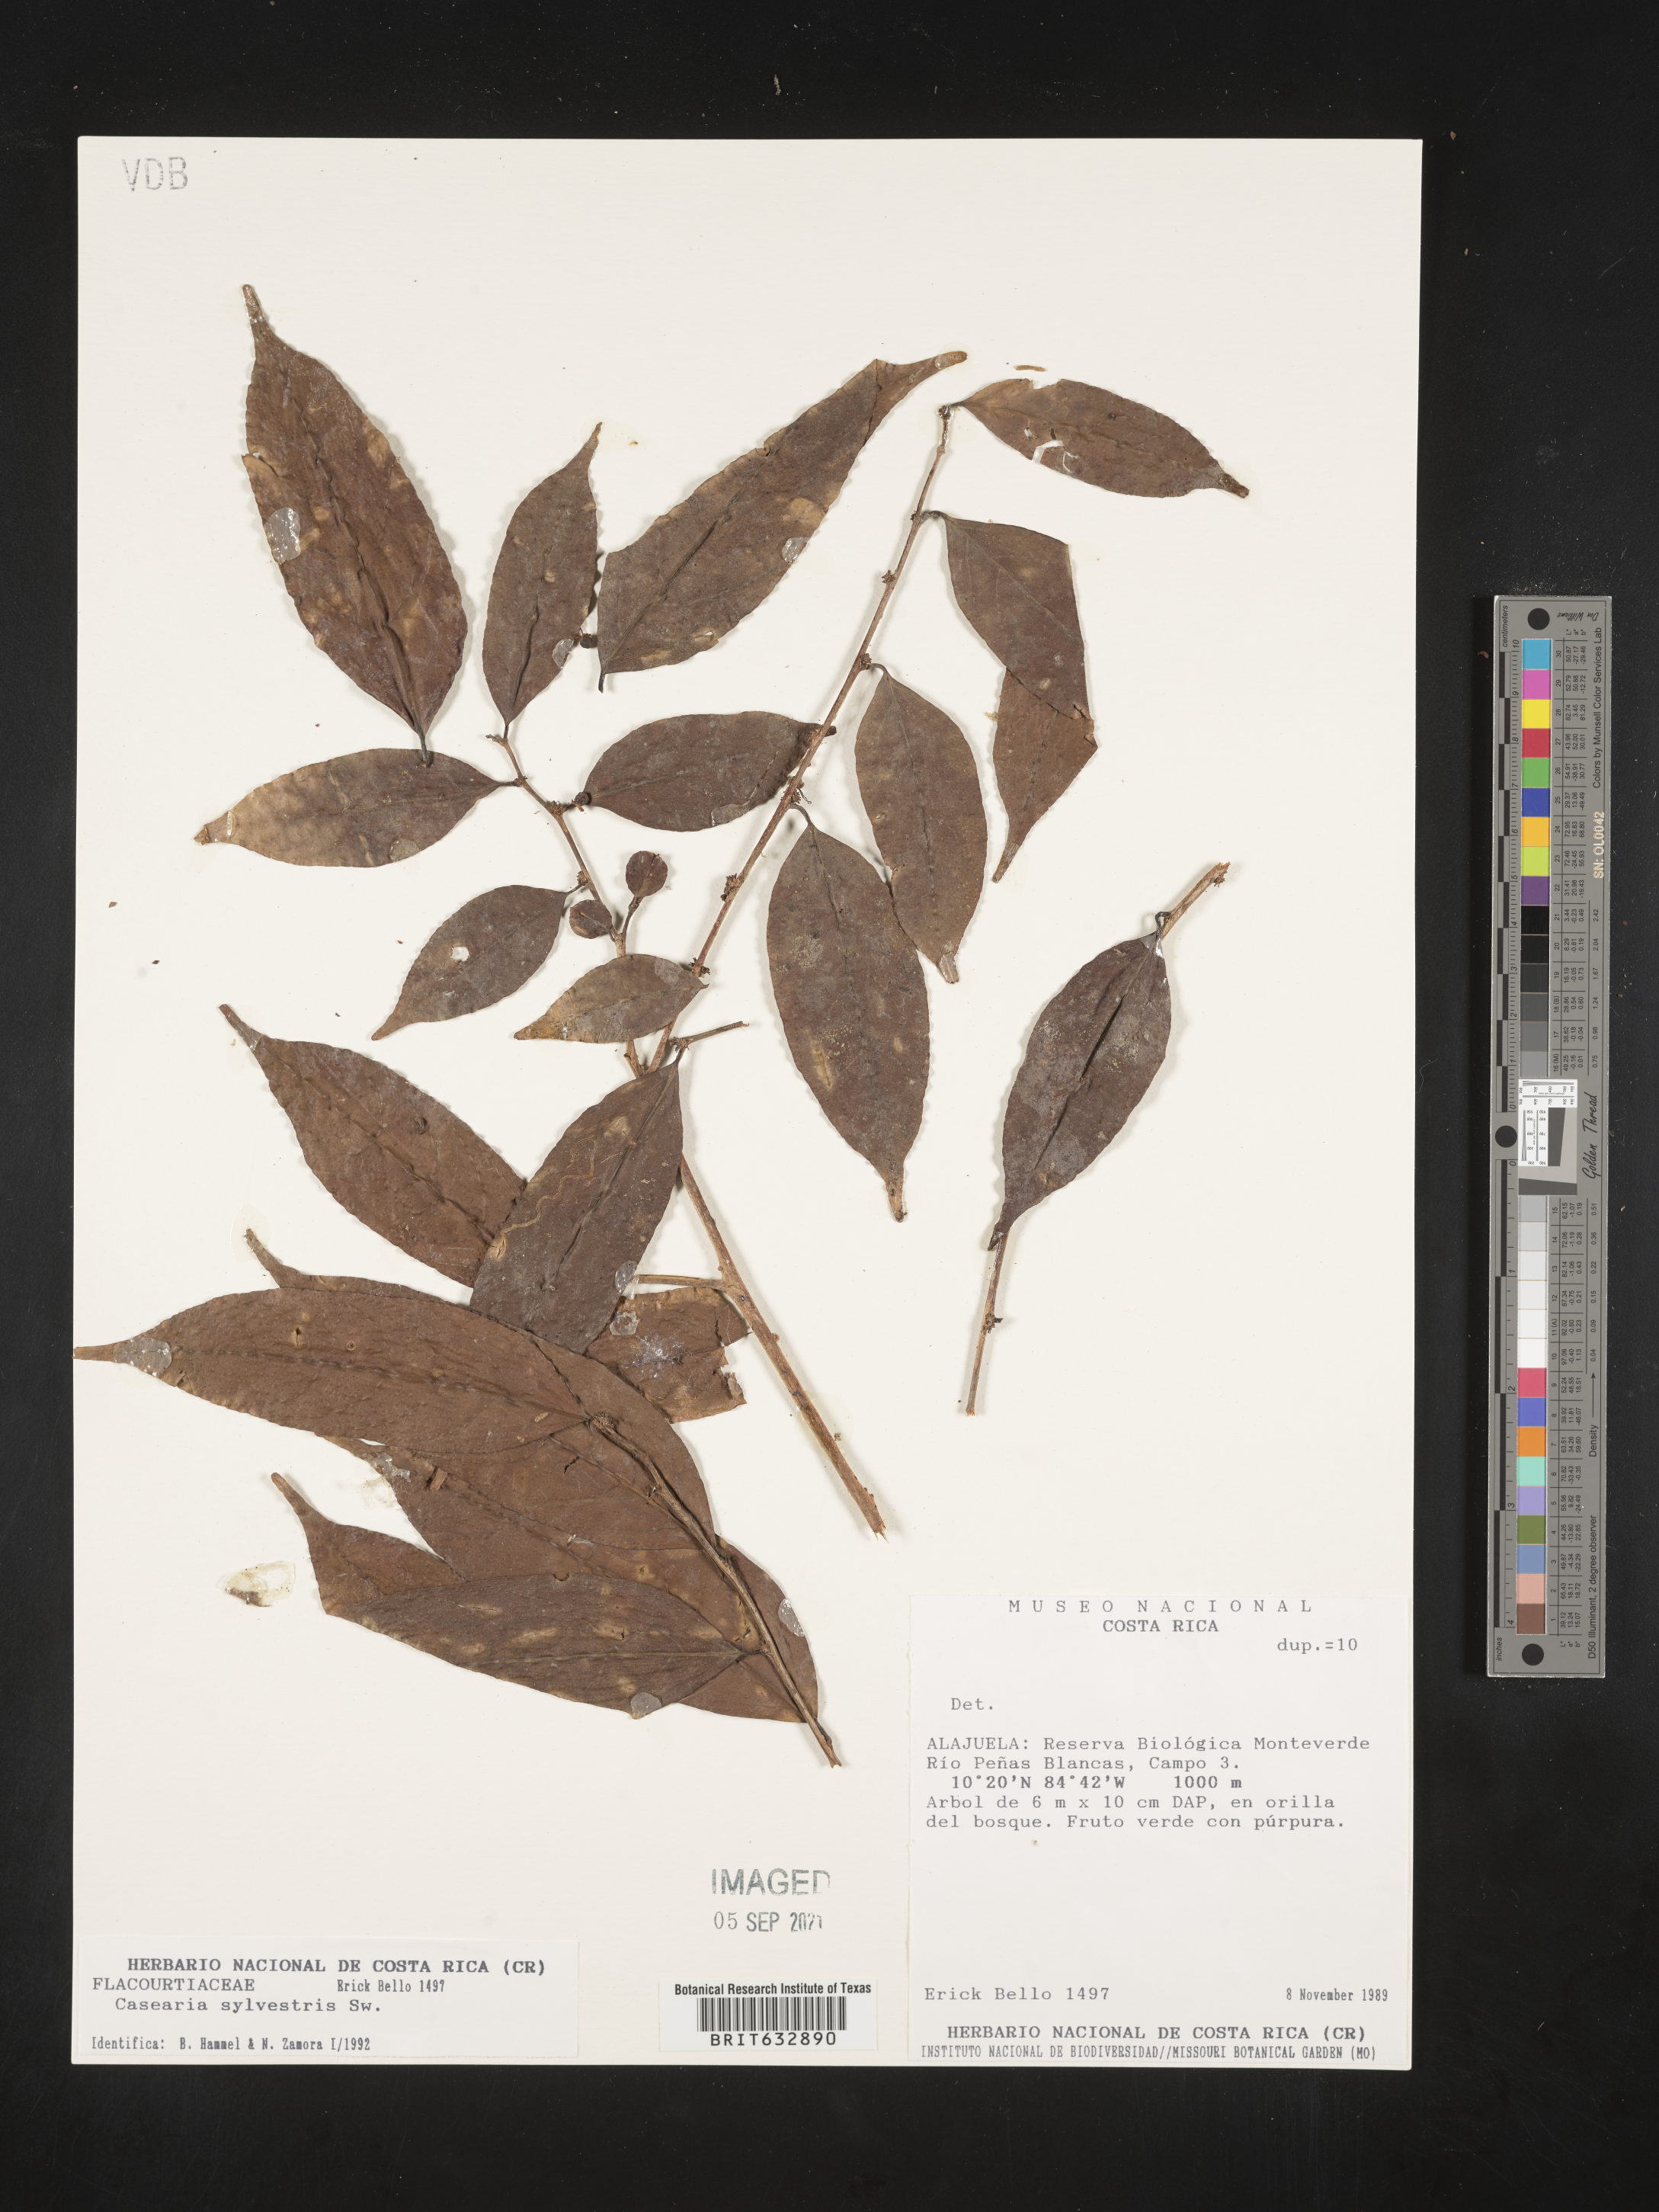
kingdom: Plantae
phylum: Tracheophyta
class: Magnoliopsida
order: Malpighiales
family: Salicaceae
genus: Casearia
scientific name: Casearia
